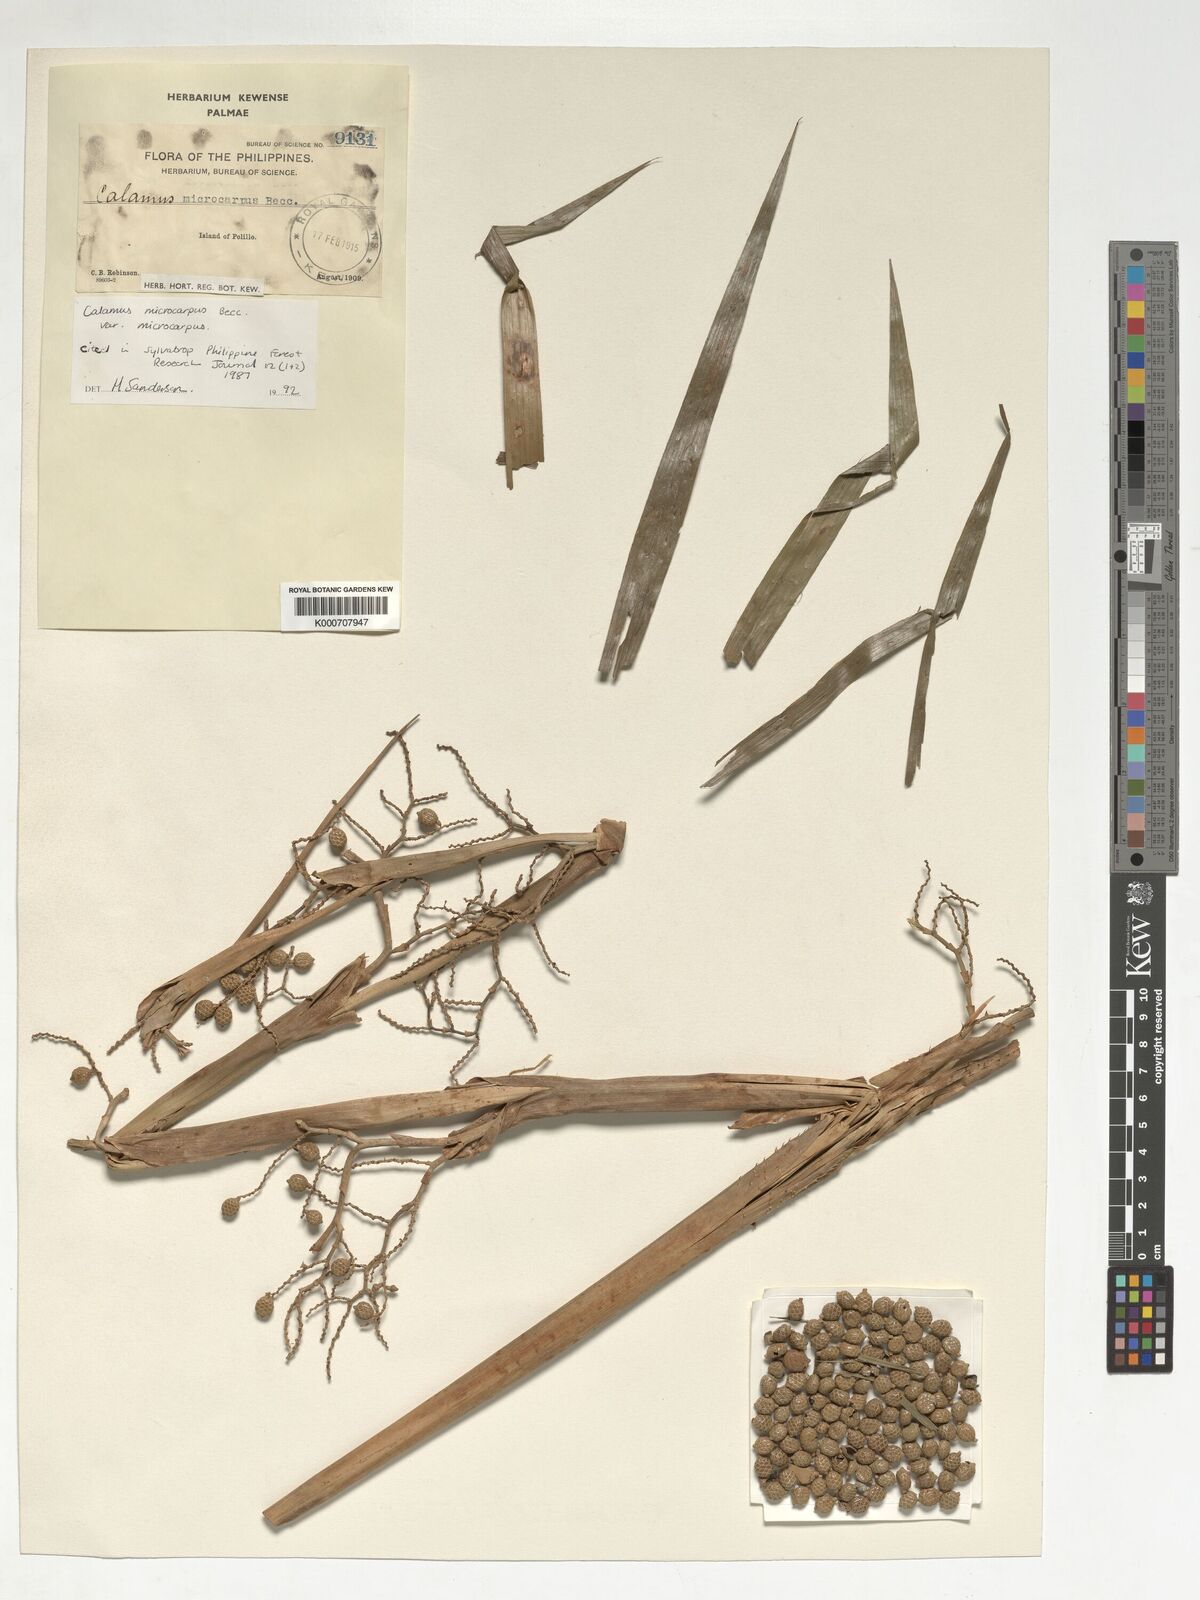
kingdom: Plantae
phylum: Tracheophyta
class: Liliopsida
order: Arecales
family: Arecaceae
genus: Calamus
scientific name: Calamus siphonospathus
